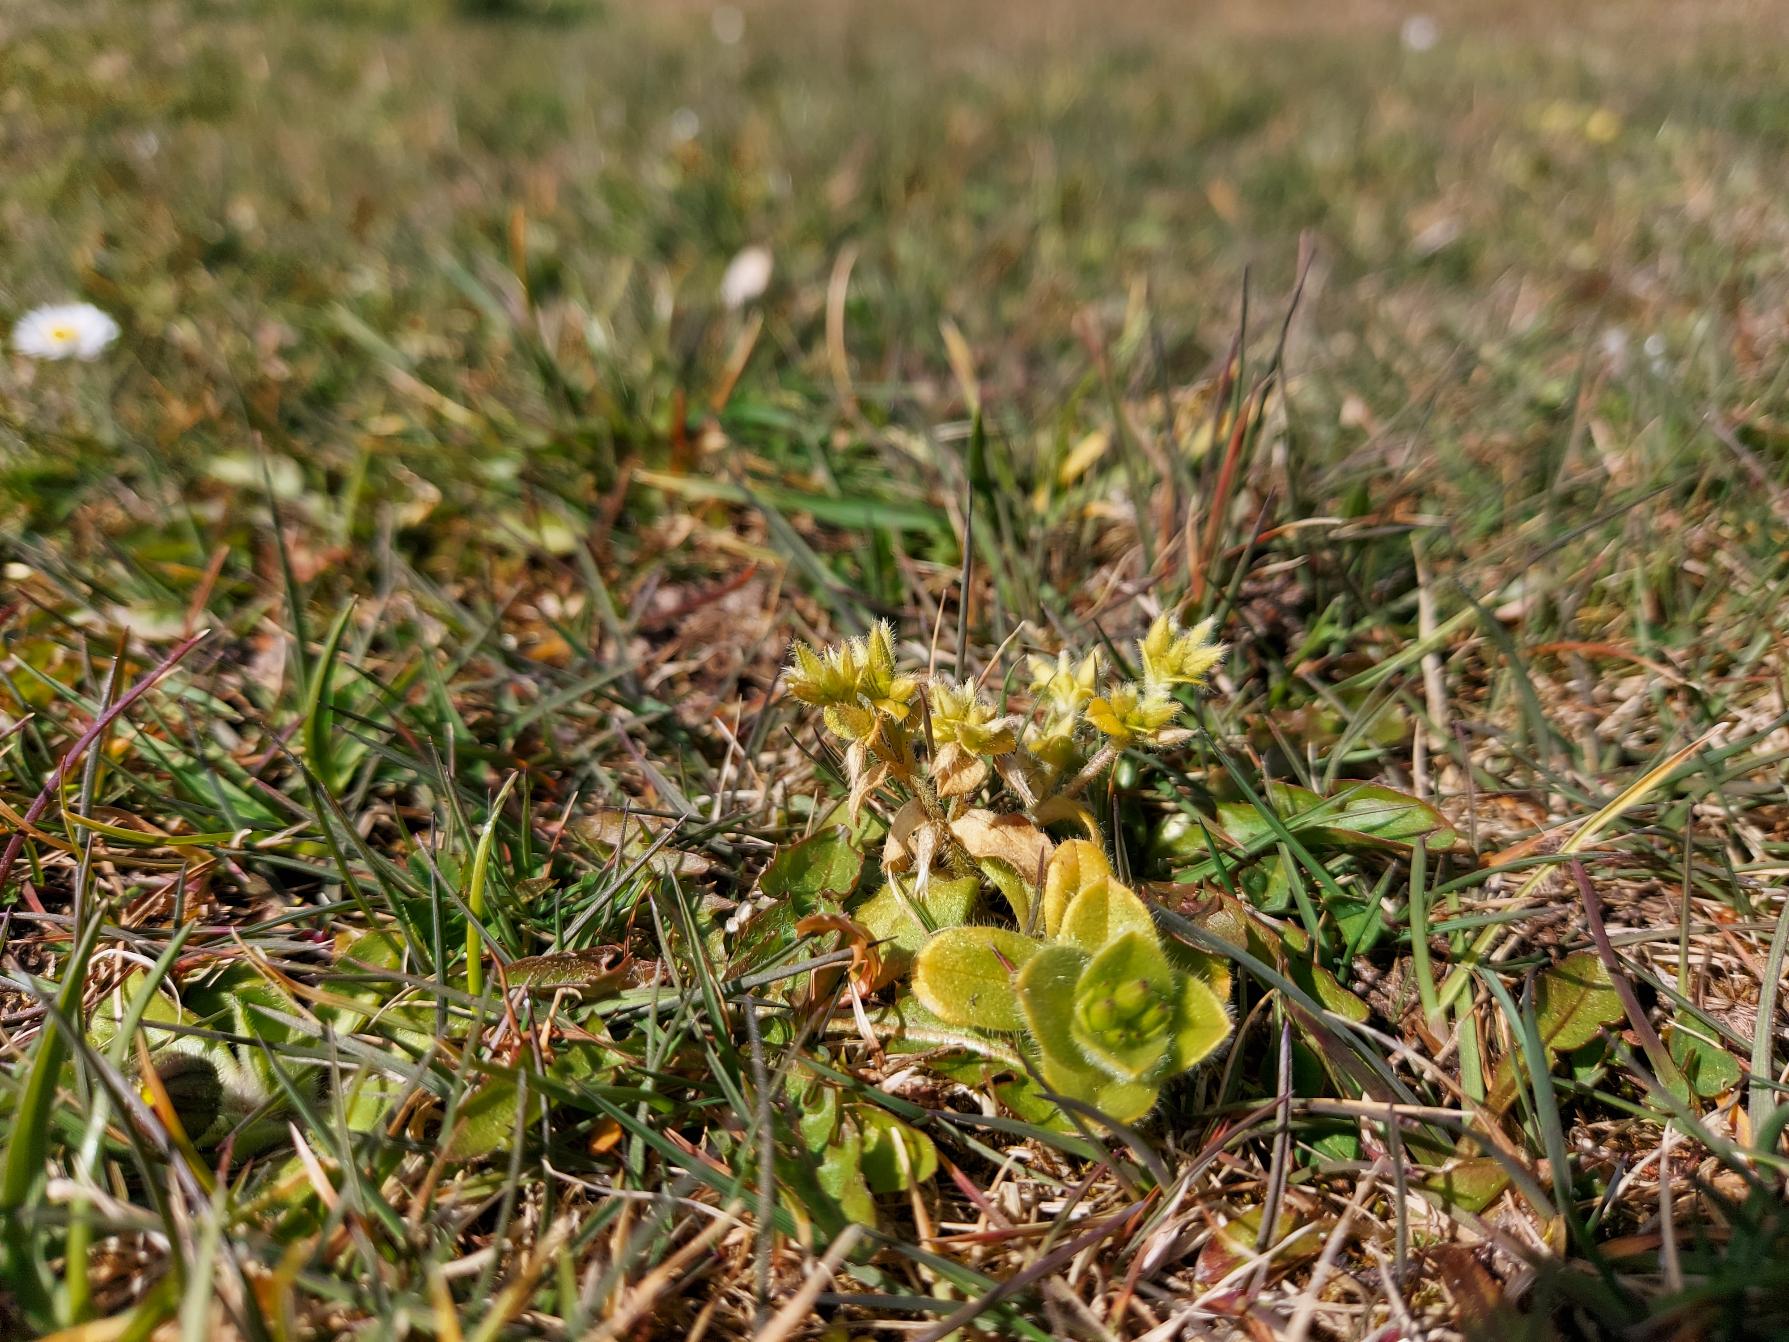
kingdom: Plantae
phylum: Tracheophyta
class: Magnoliopsida
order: Caryophyllales
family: Caryophyllaceae
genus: Cerastium
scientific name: Cerastium glomeratum
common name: Opret hønsetarm
